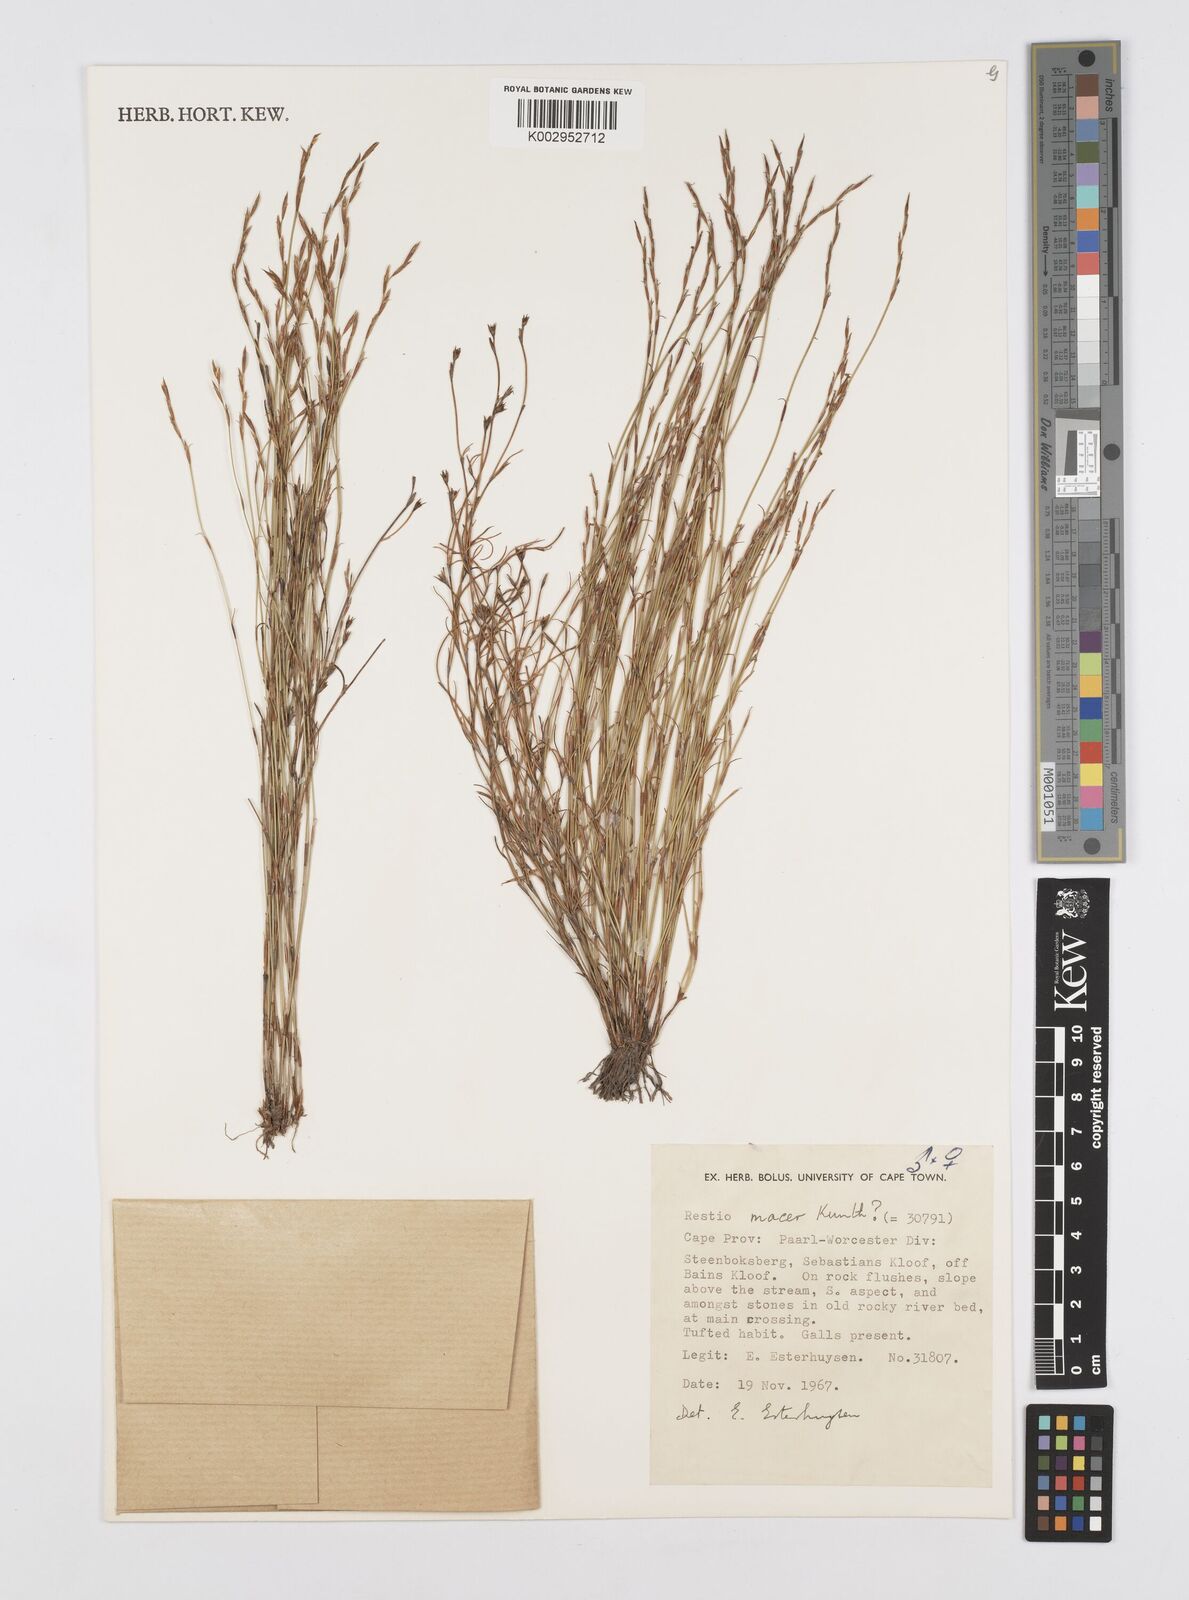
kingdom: Plantae
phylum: Tracheophyta
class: Liliopsida
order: Poales
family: Restionaceae
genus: Restio
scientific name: Restio macer
